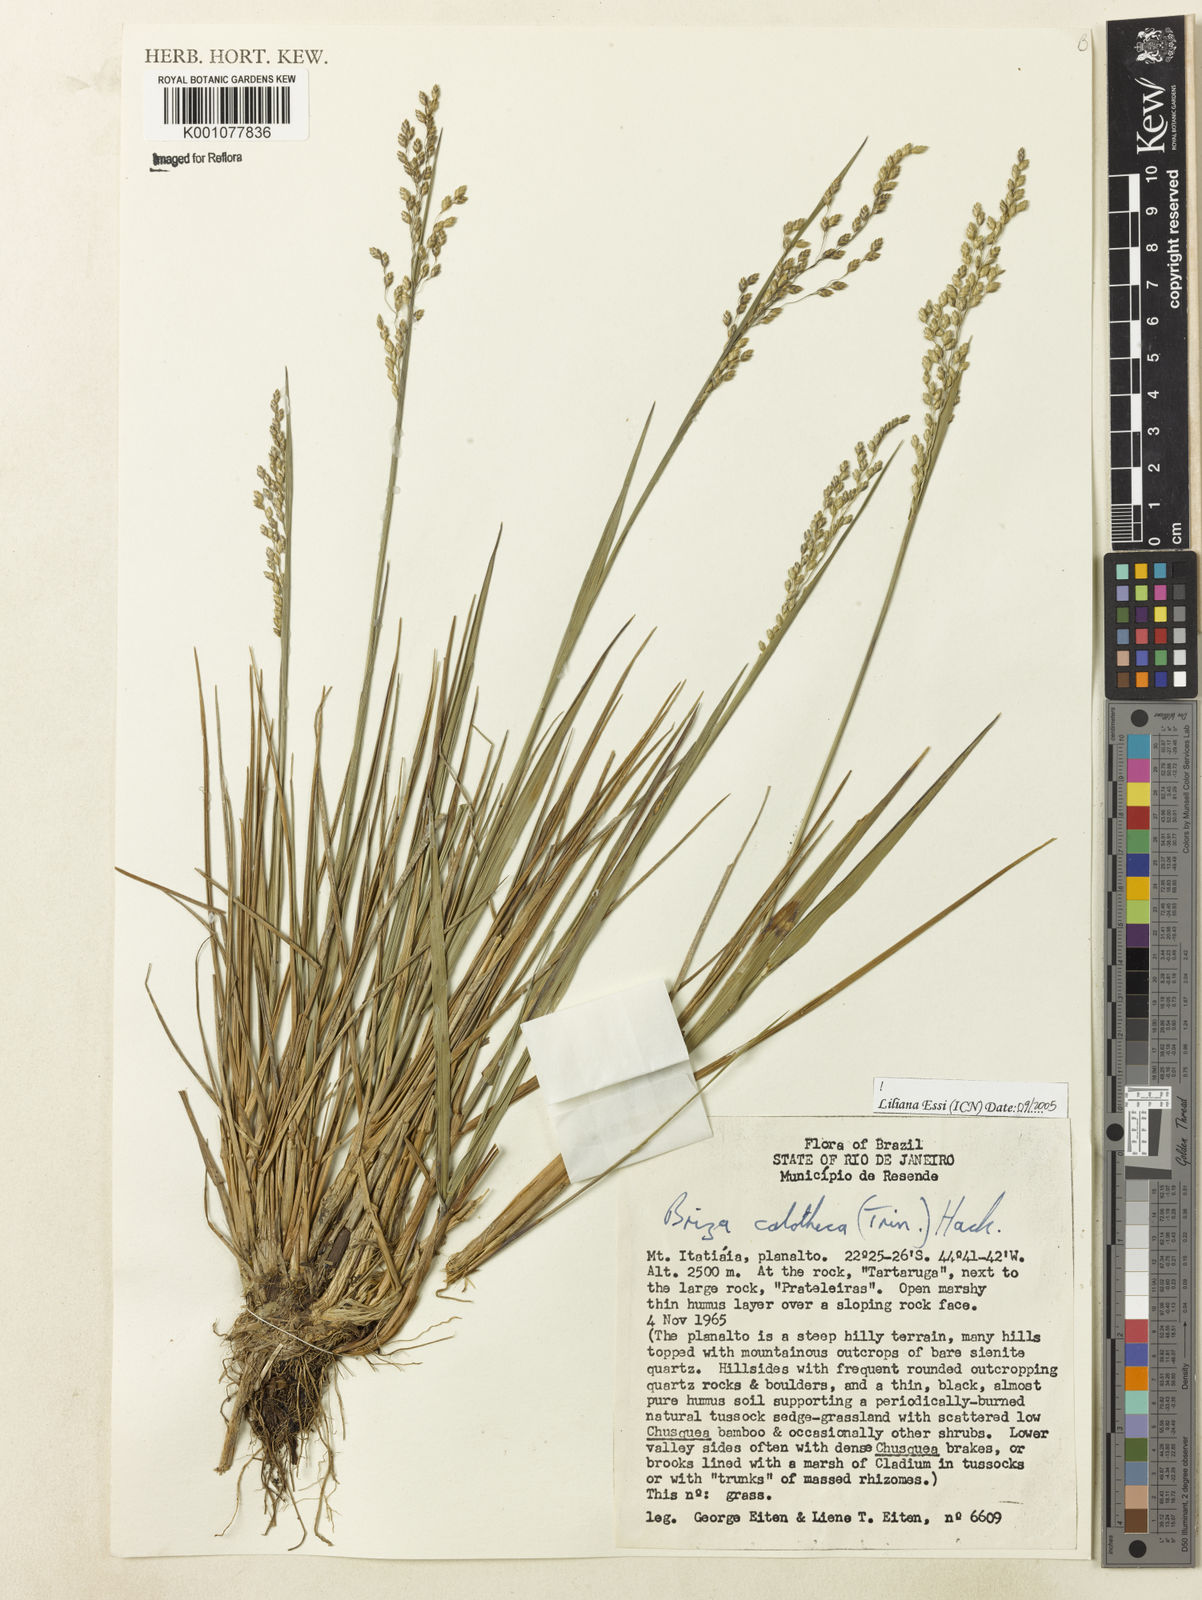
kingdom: Plantae
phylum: Tracheophyta
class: Liliopsida
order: Poales
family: Poaceae
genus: Poidium
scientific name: Poidium calotheca
